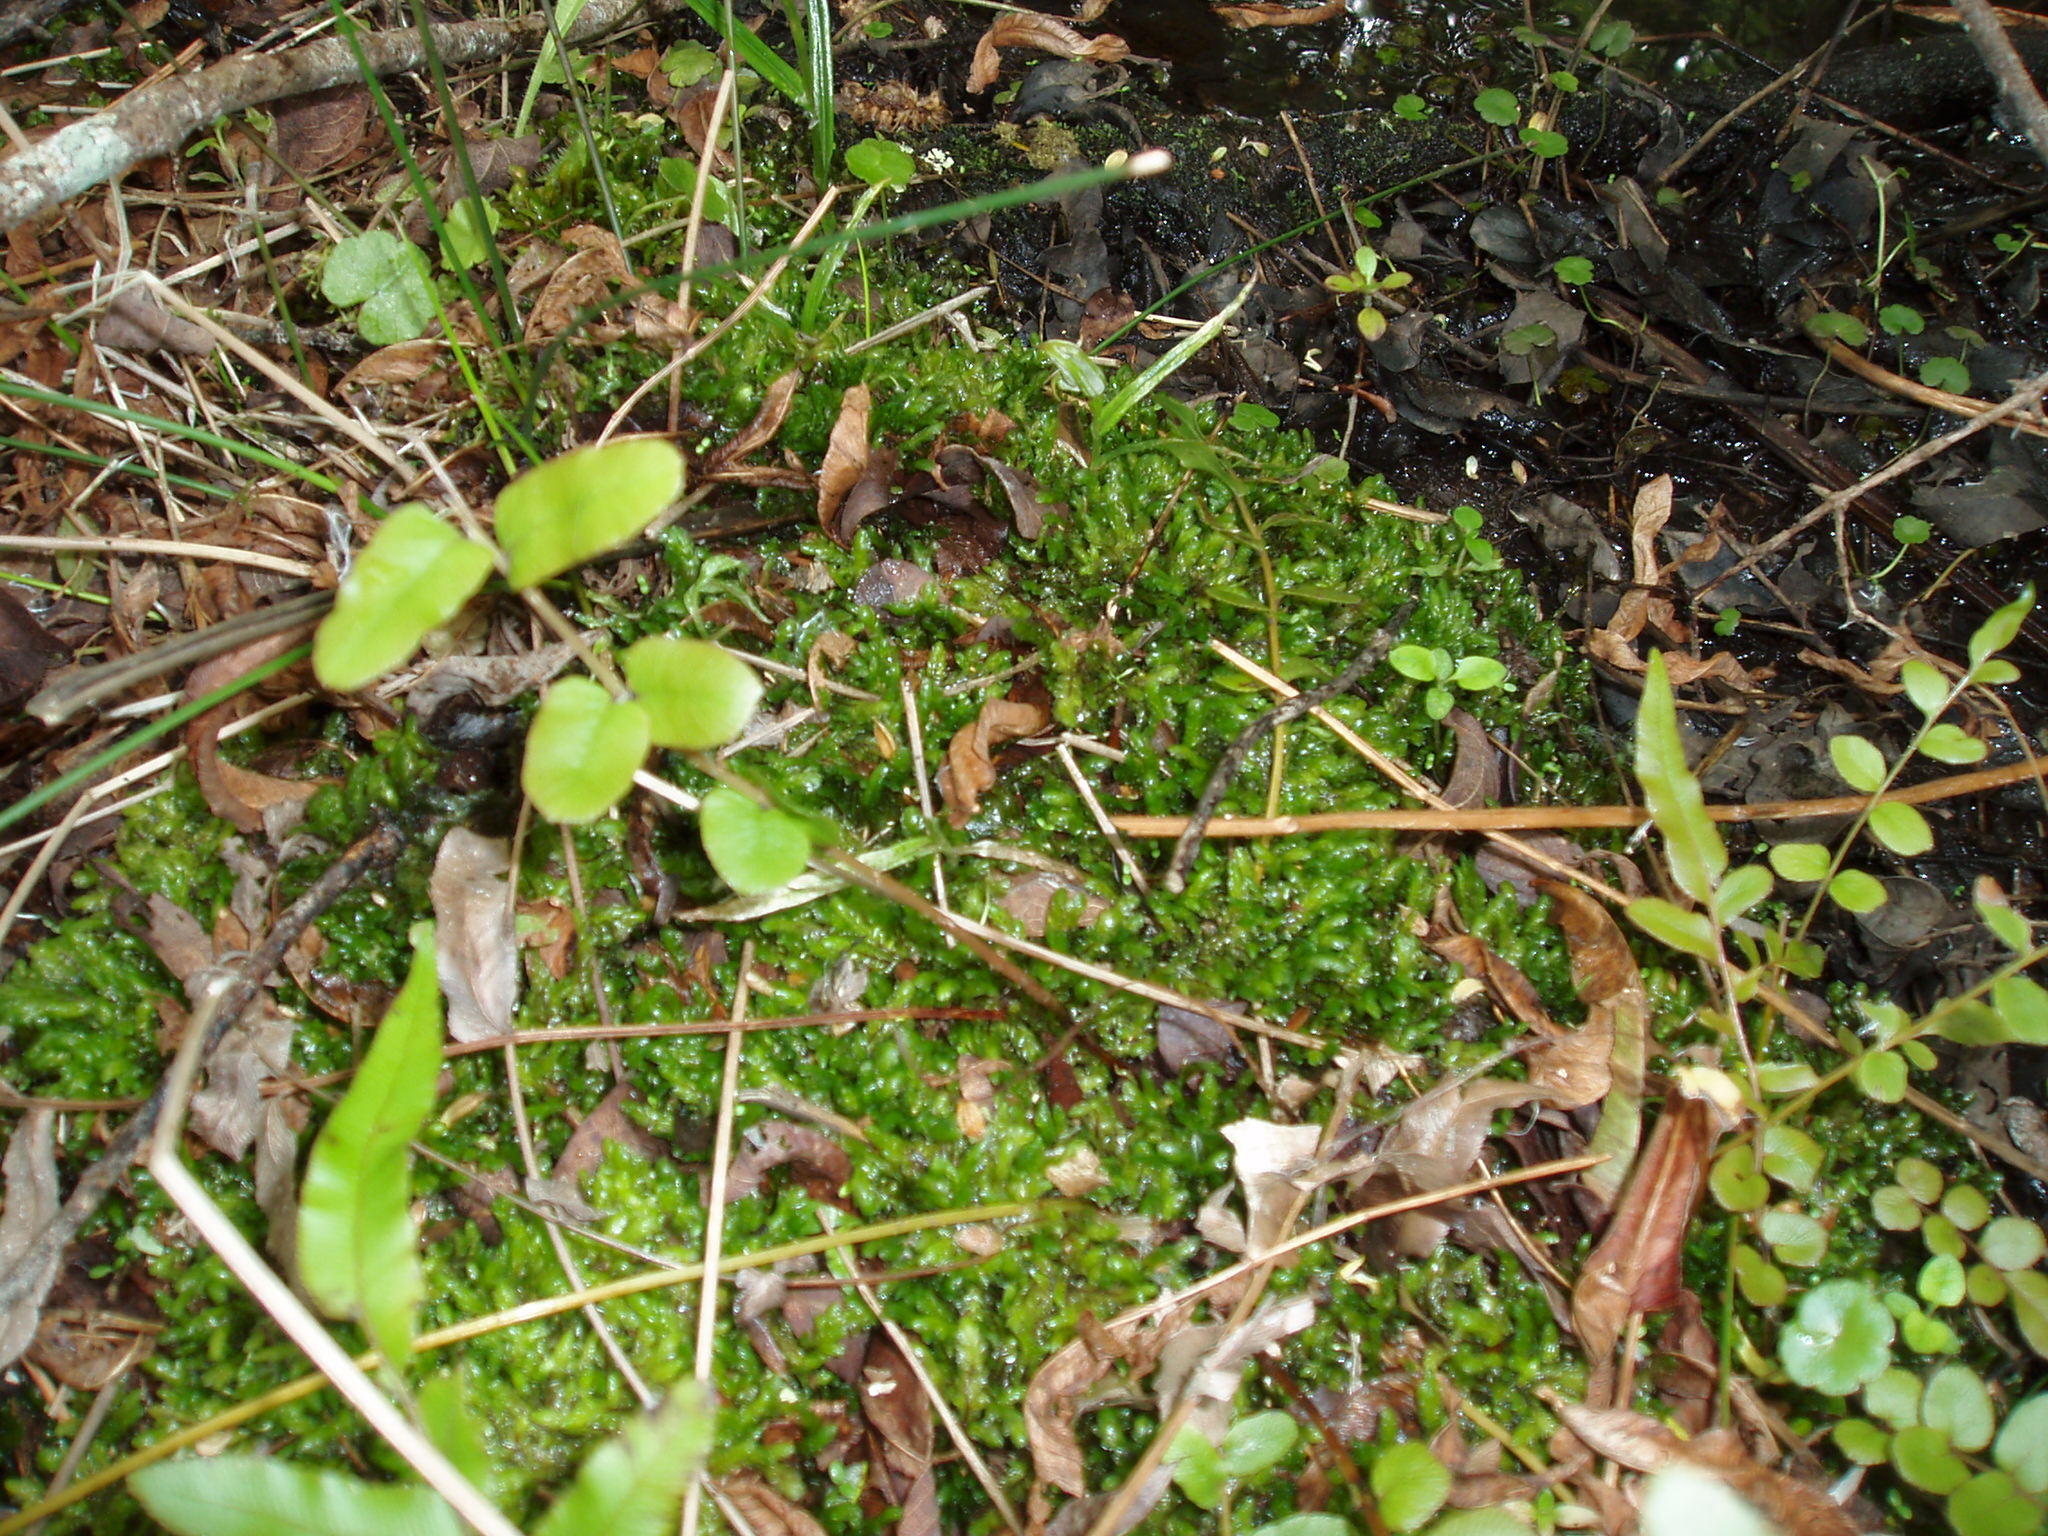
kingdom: Plantae
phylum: Bryophyta
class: Bryopsida
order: Hookeriales
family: Daltoniaceae
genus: Distichophyllum
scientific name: Distichophyllum pulchellum
